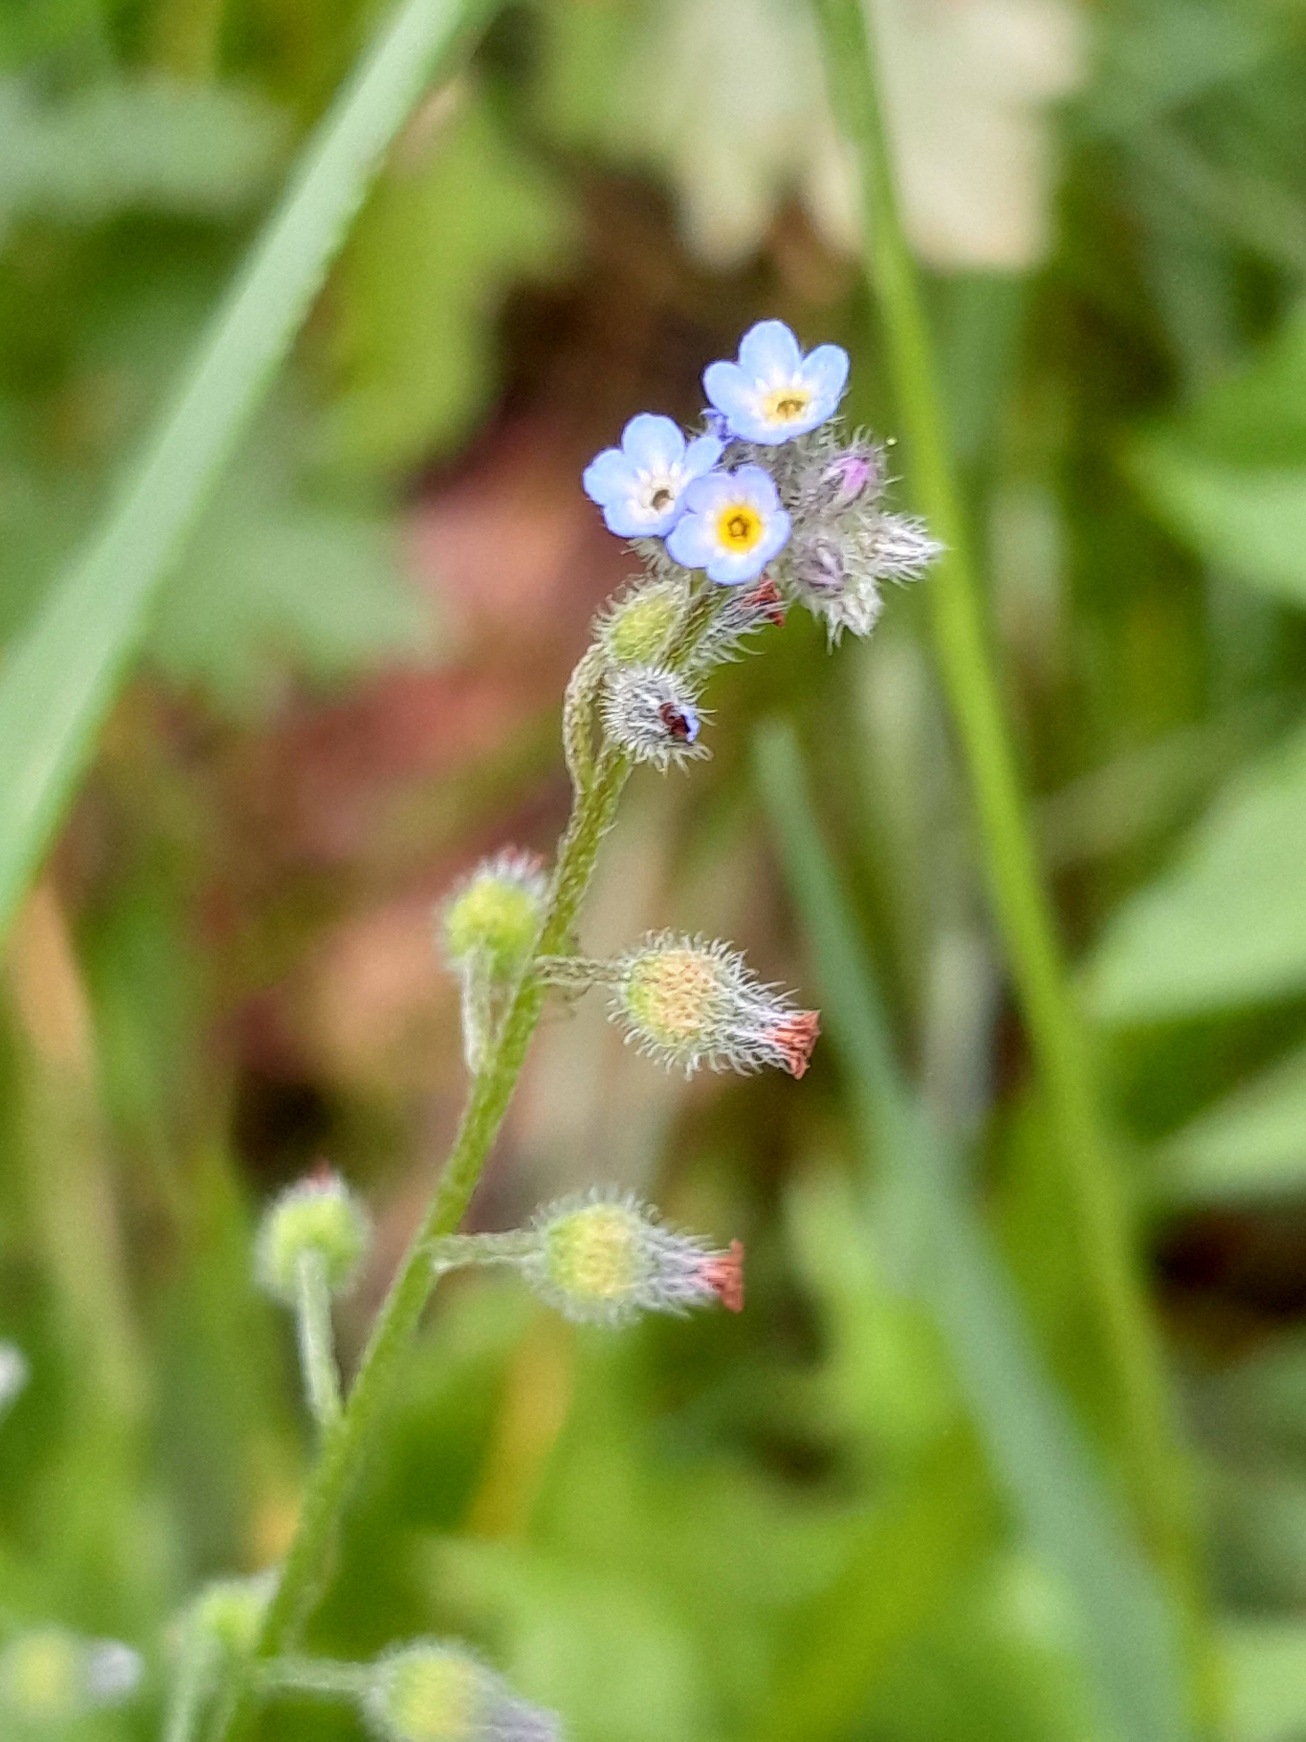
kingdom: Plantae
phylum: Tracheophyta
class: Magnoliopsida
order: Boraginales
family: Boraginaceae
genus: Myosotis
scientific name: Myosotis ramosissima
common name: Bakke-forglemmigej
